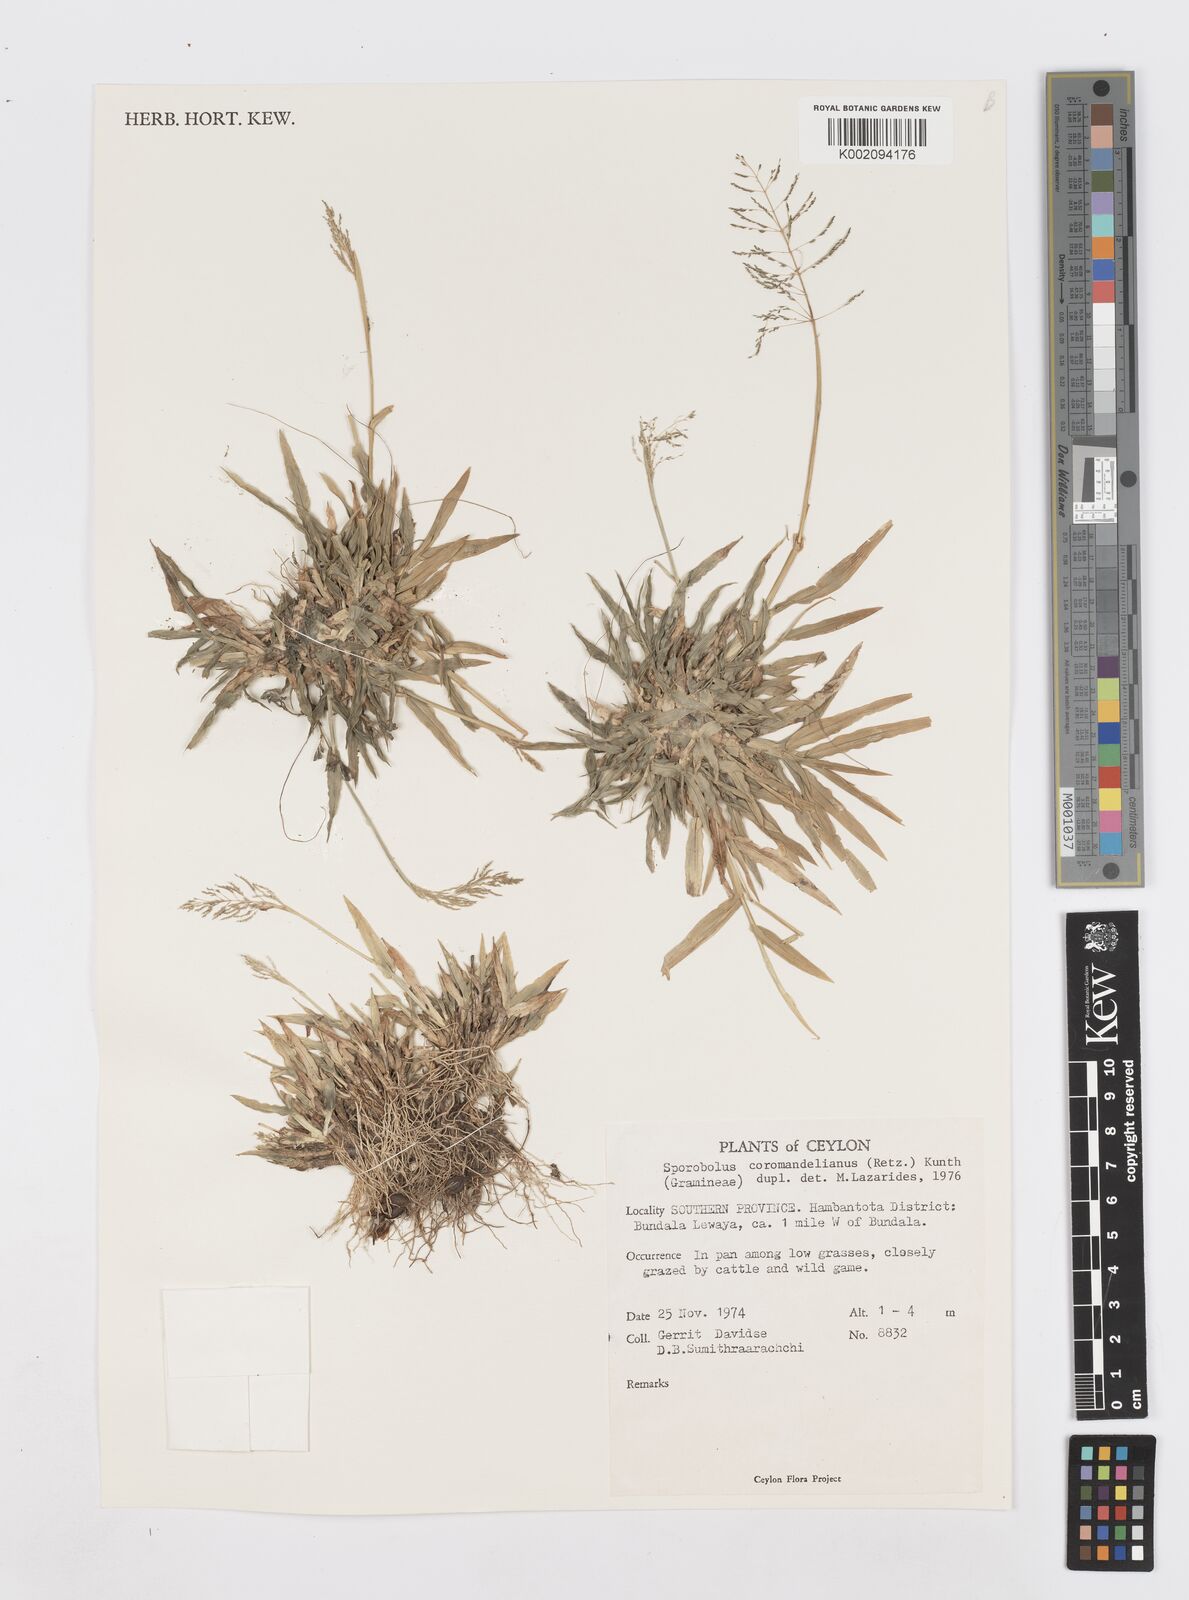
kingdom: Plantae
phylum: Tracheophyta
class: Liliopsida
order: Poales
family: Poaceae
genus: Sporobolus
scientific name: Sporobolus coromandelianus
